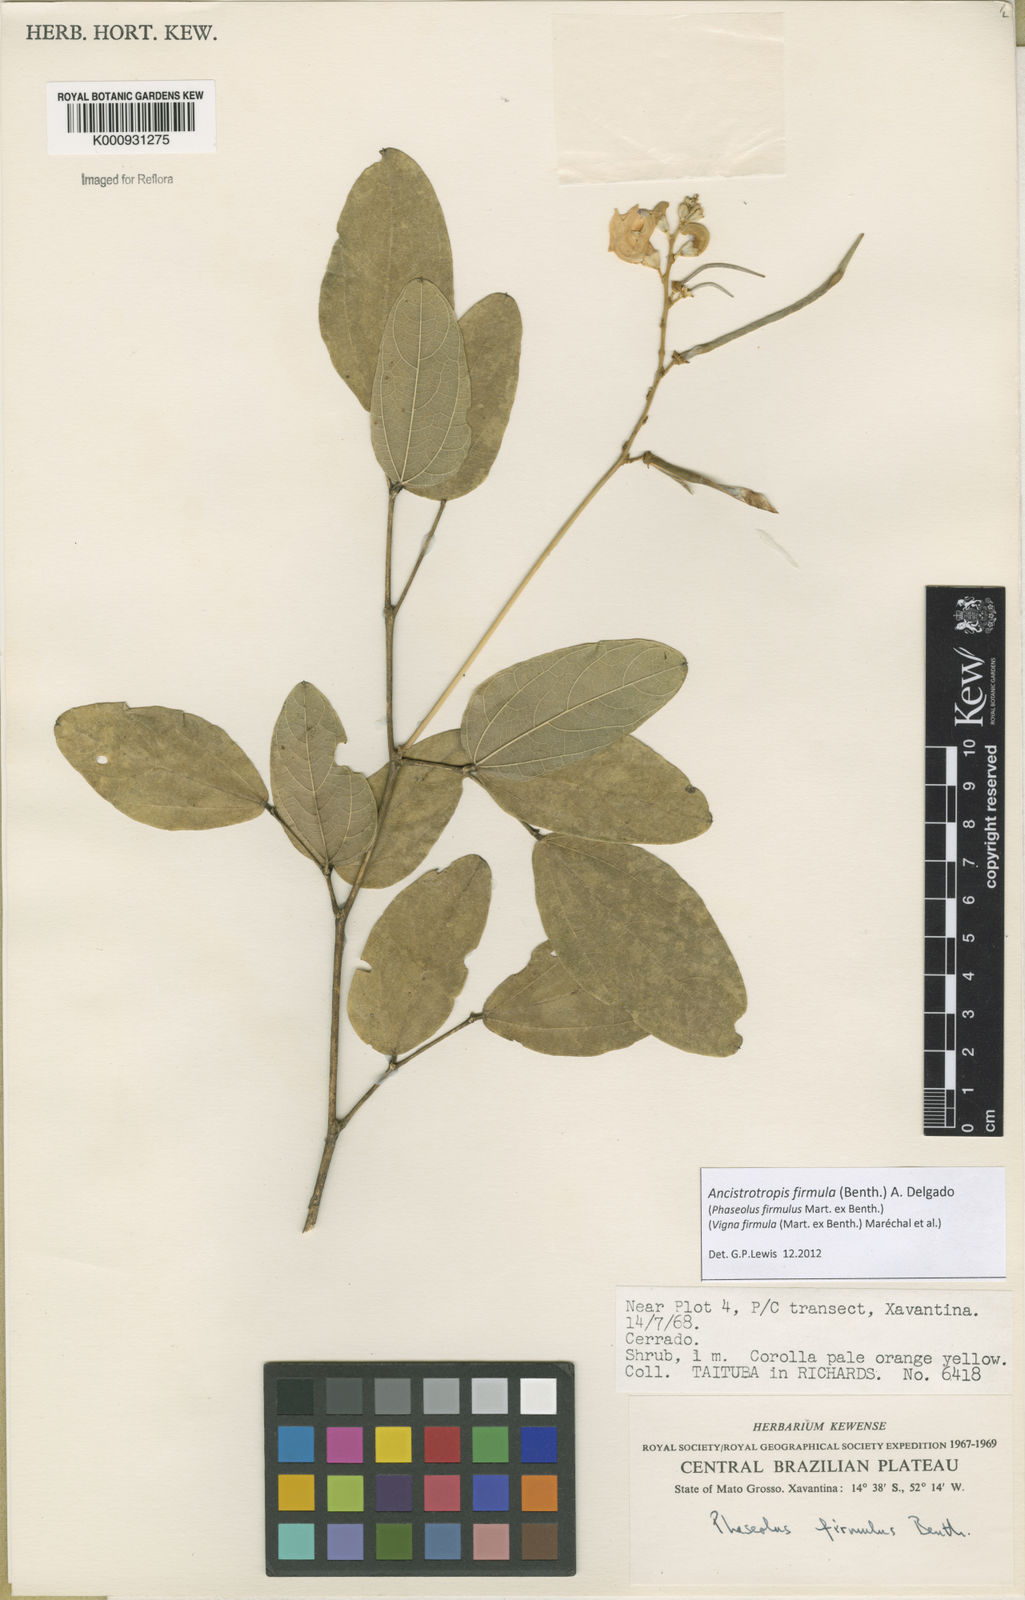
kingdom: Plantae
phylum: Tracheophyta
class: Magnoliopsida
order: Fabales
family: Fabaceae
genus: Ancistrotropis
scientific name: Ancistrotropis firmula
